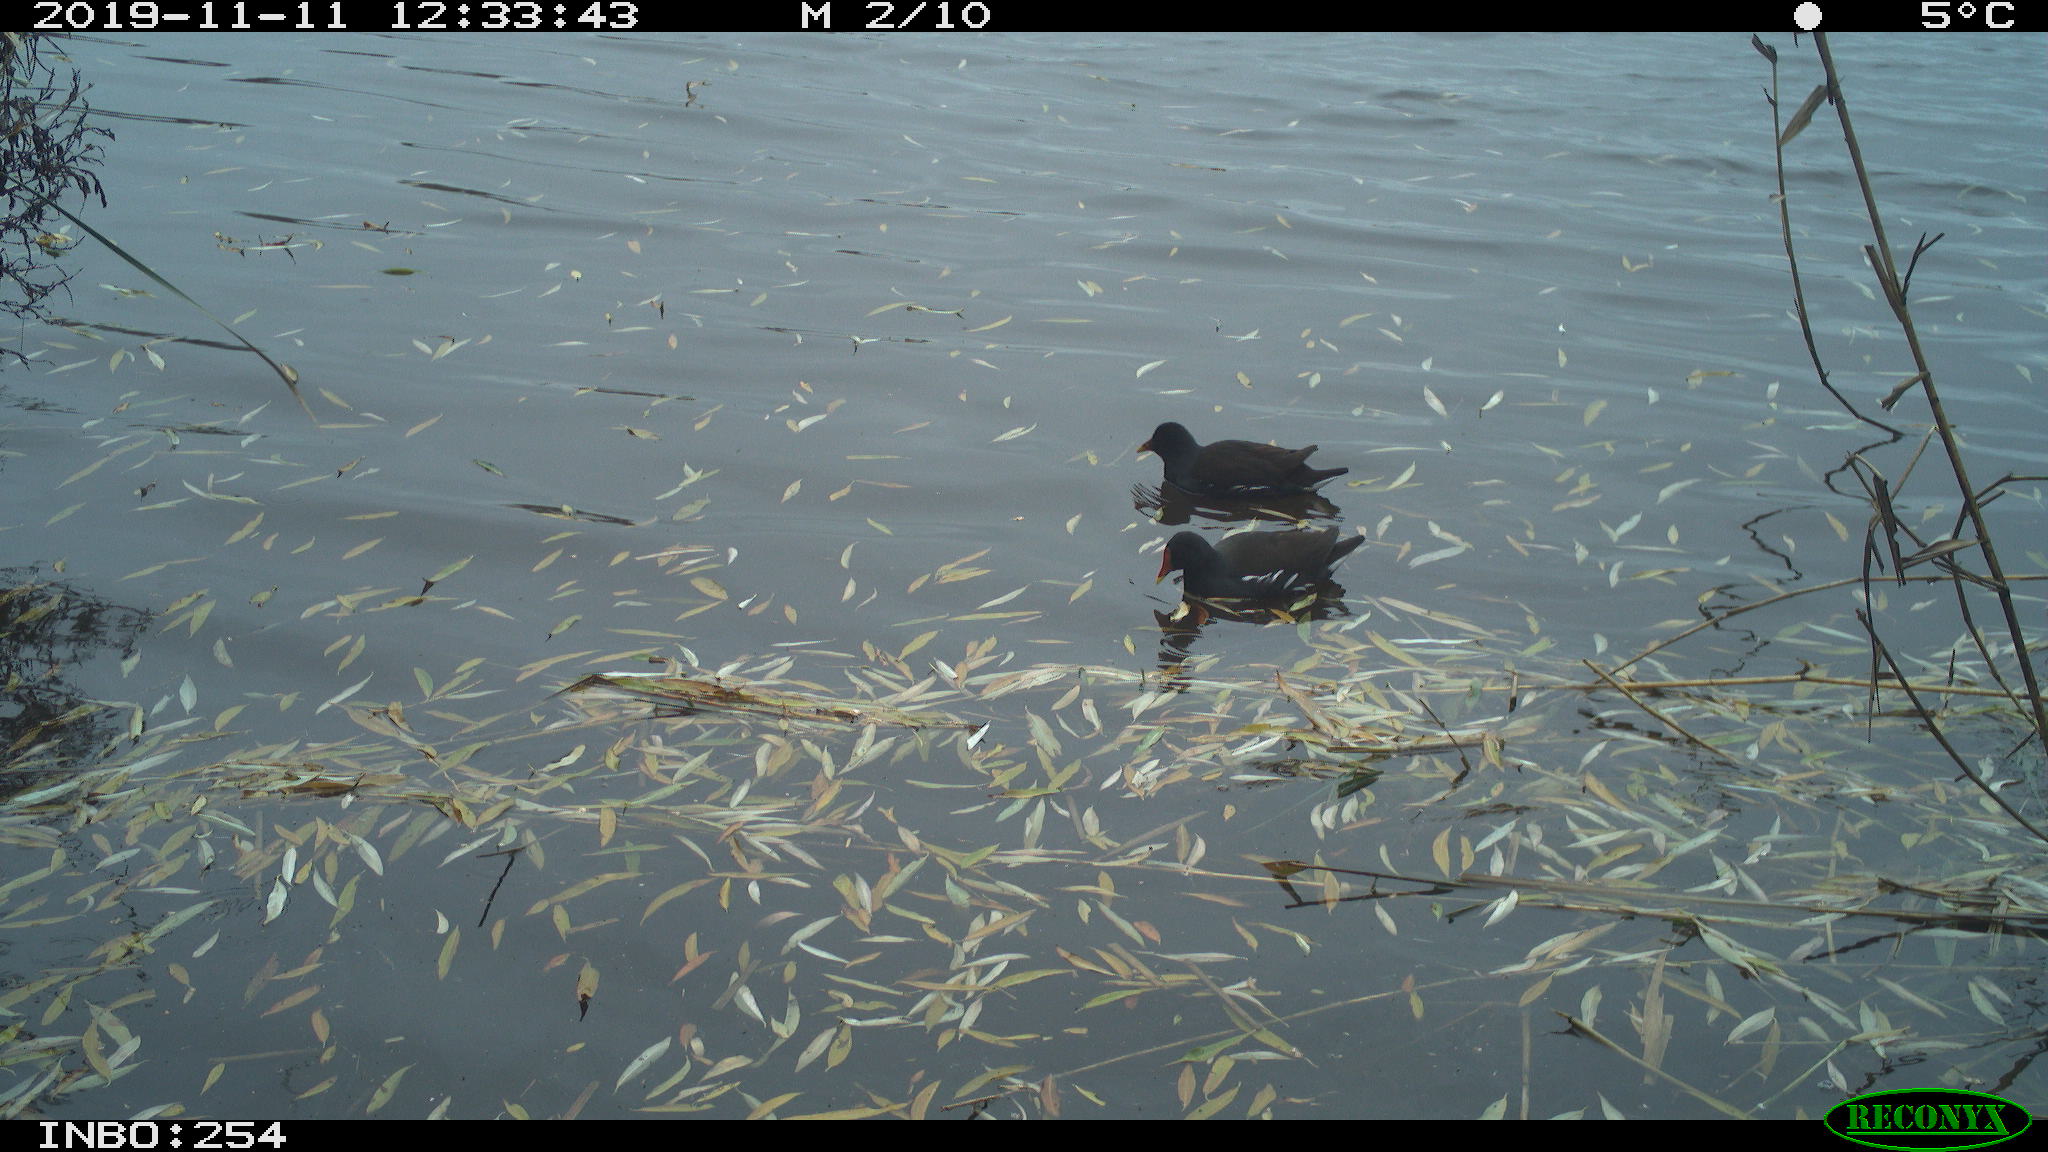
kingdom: Animalia
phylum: Chordata
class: Aves
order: Gruiformes
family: Rallidae
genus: Gallinula
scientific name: Gallinula chloropus
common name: Common moorhen
